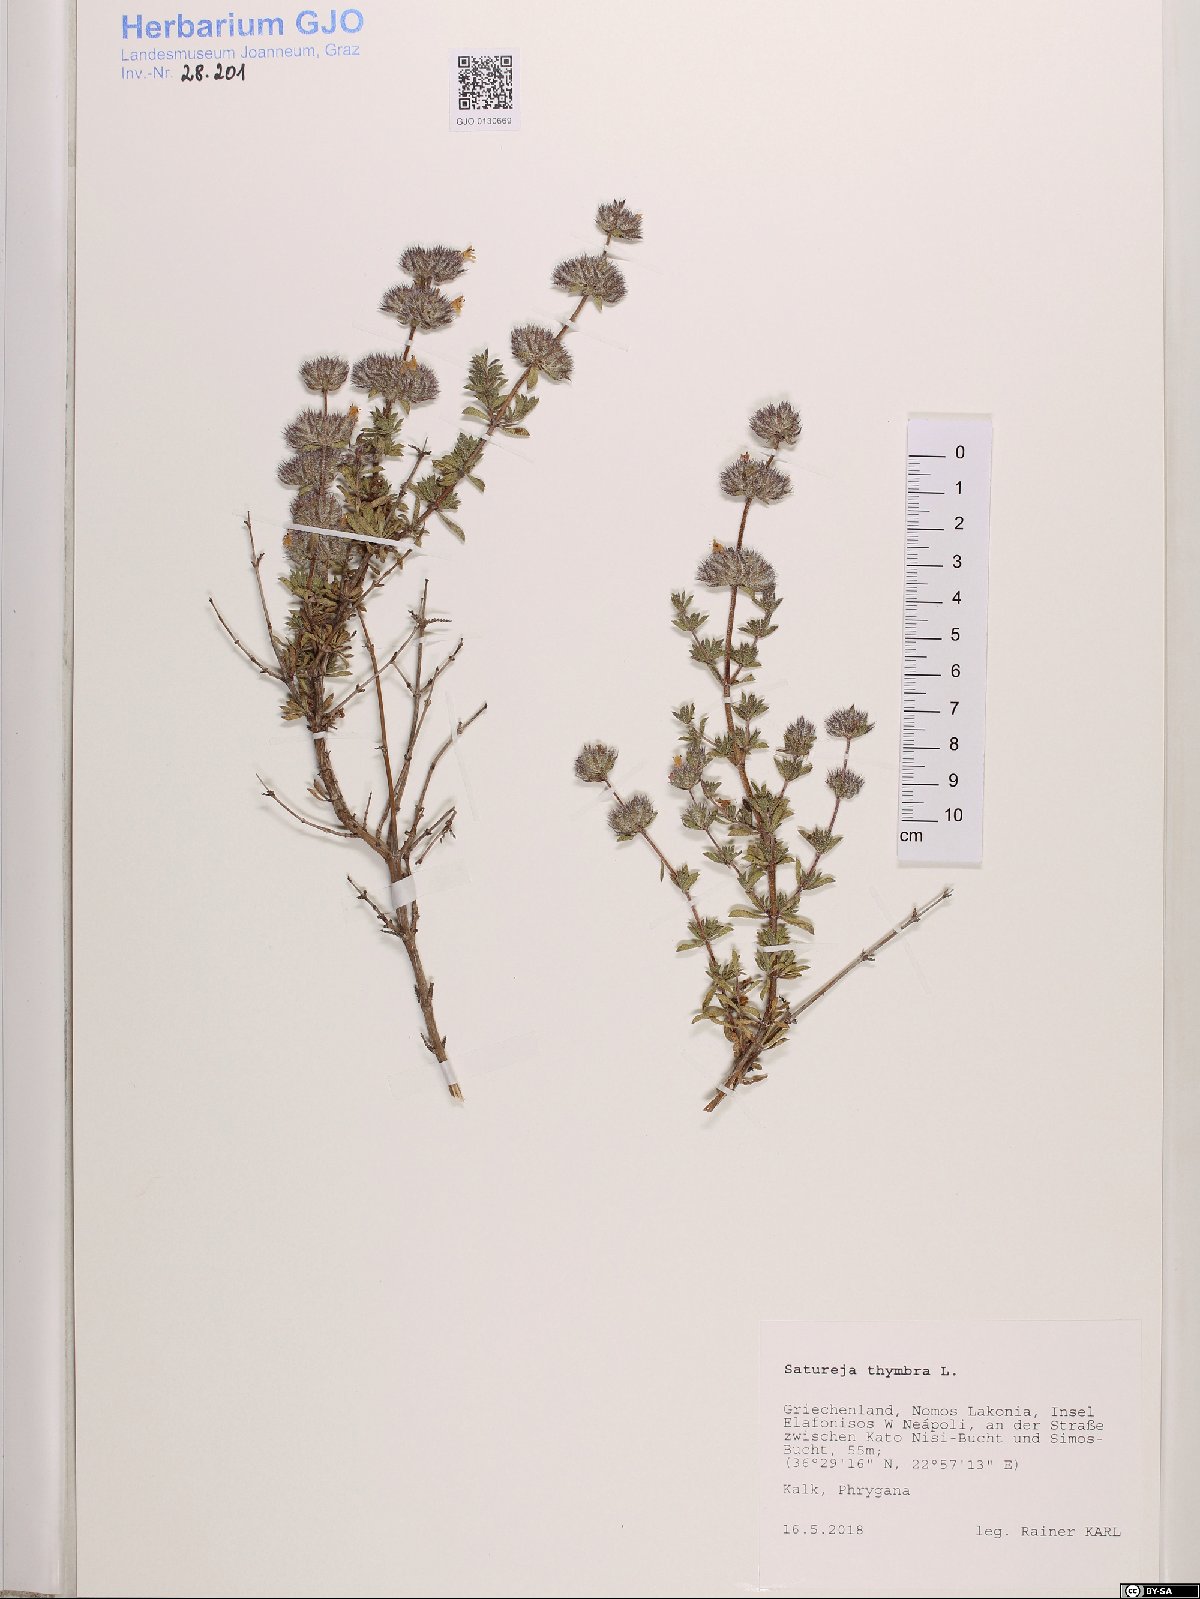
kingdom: Plantae
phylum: Tracheophyta
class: Magnoliopsida
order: Lamiales
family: Lamiaceae
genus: Satureja
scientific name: Satureja thymbra
